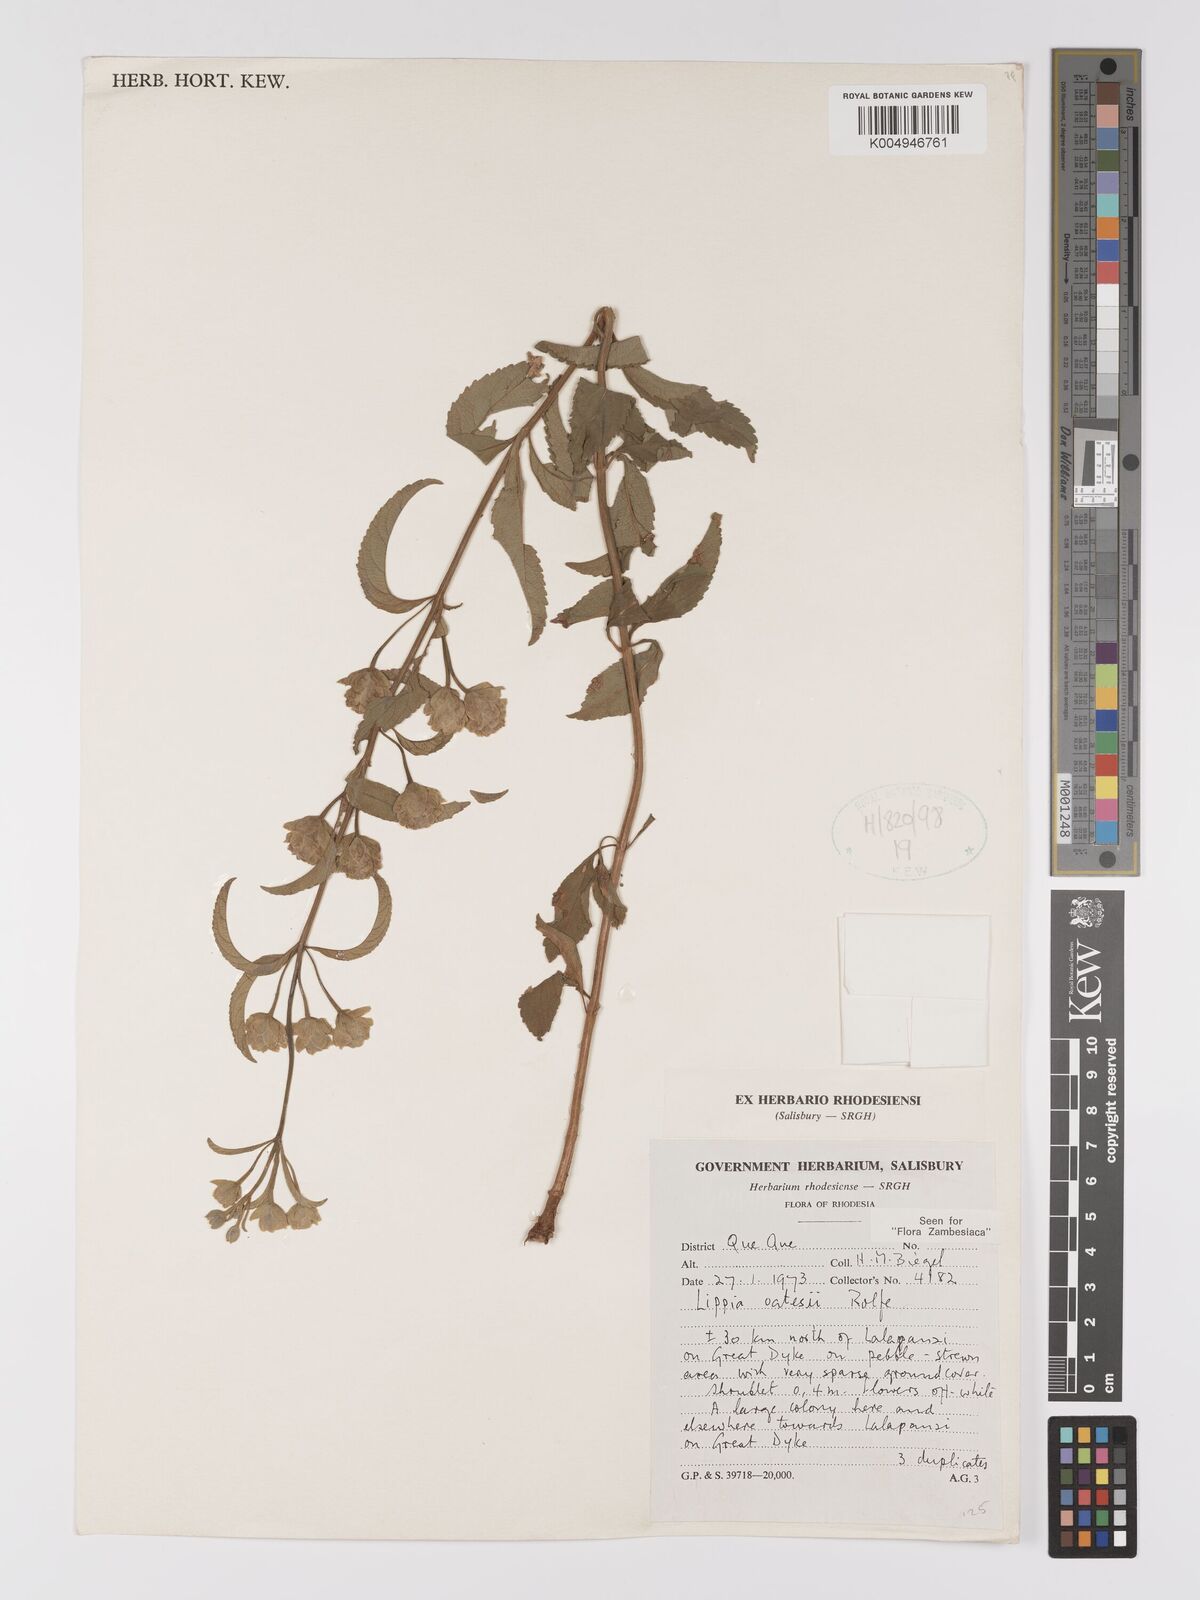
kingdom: Plantae
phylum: Tracheophyta
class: Magnoliopsida
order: Lamiales
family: Verbenaceae
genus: Lippia
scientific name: Lippia oatesii
